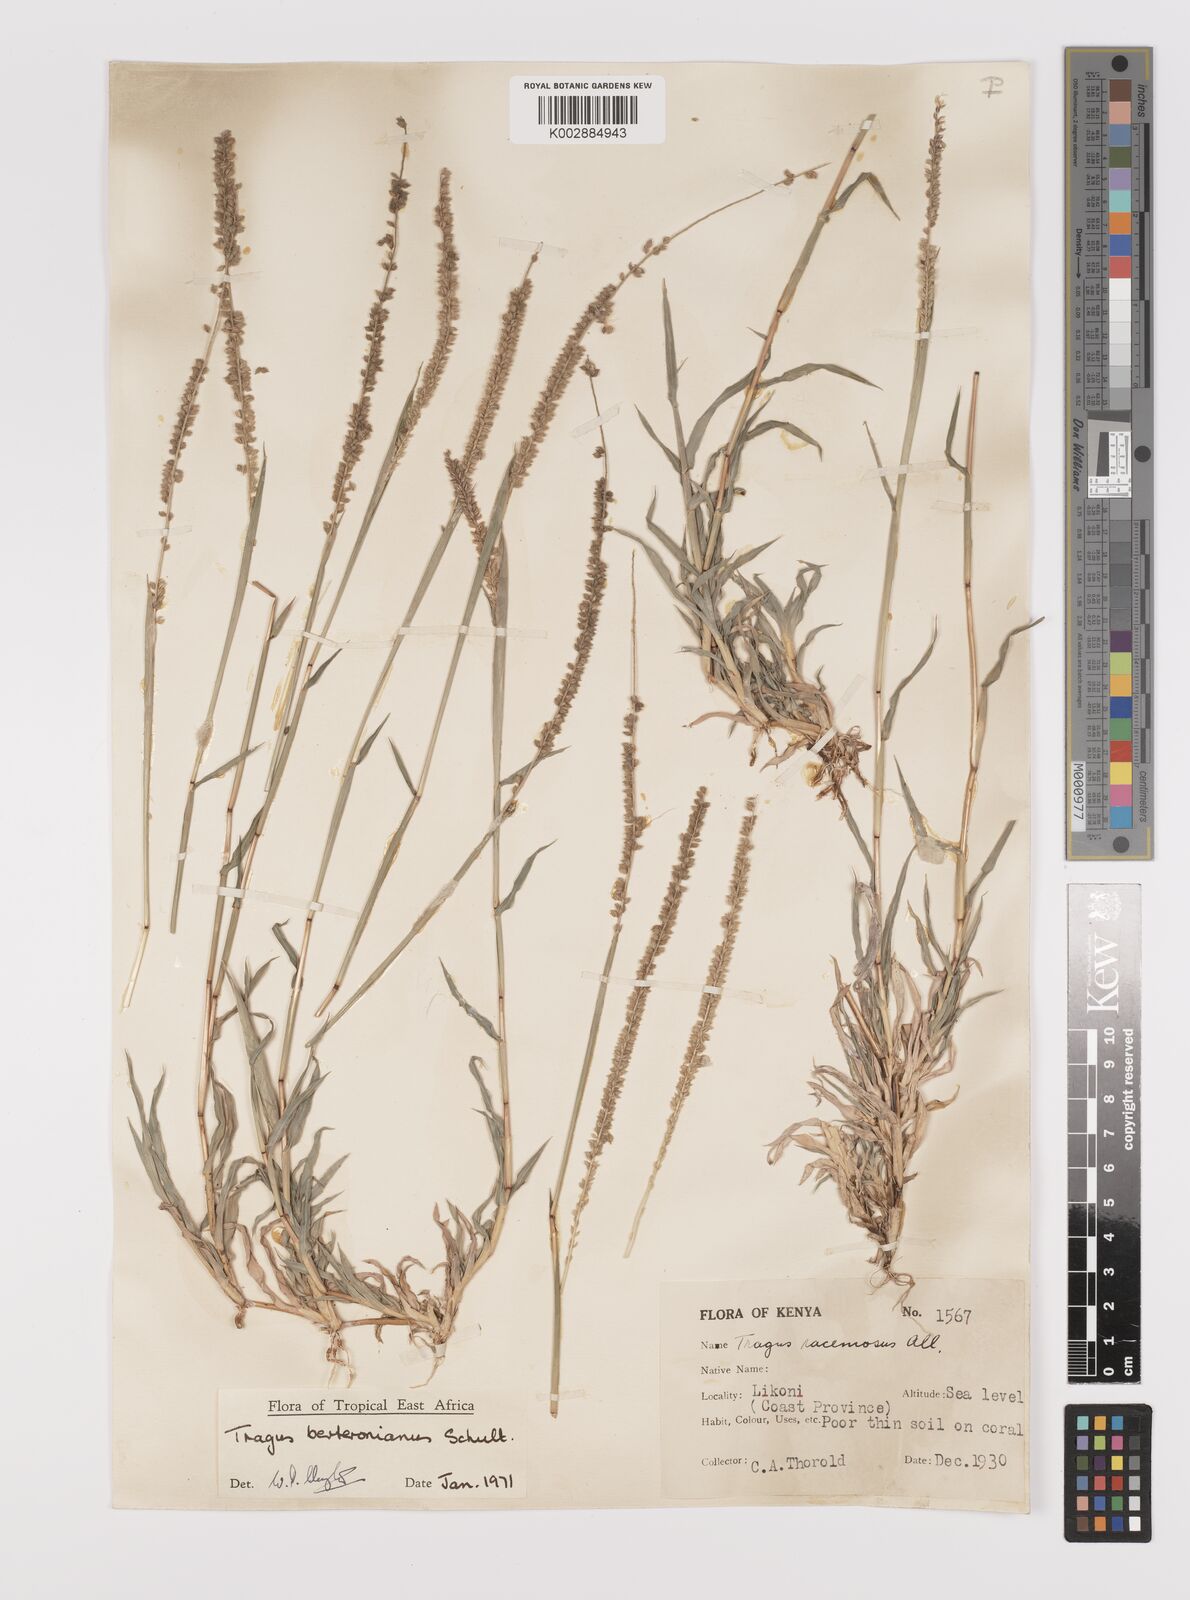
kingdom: Plantae
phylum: Tracheophyta
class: Liliopsida
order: Poales
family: Poaceae
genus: Tragus
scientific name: Tragus berteronianus
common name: African bur-grass
